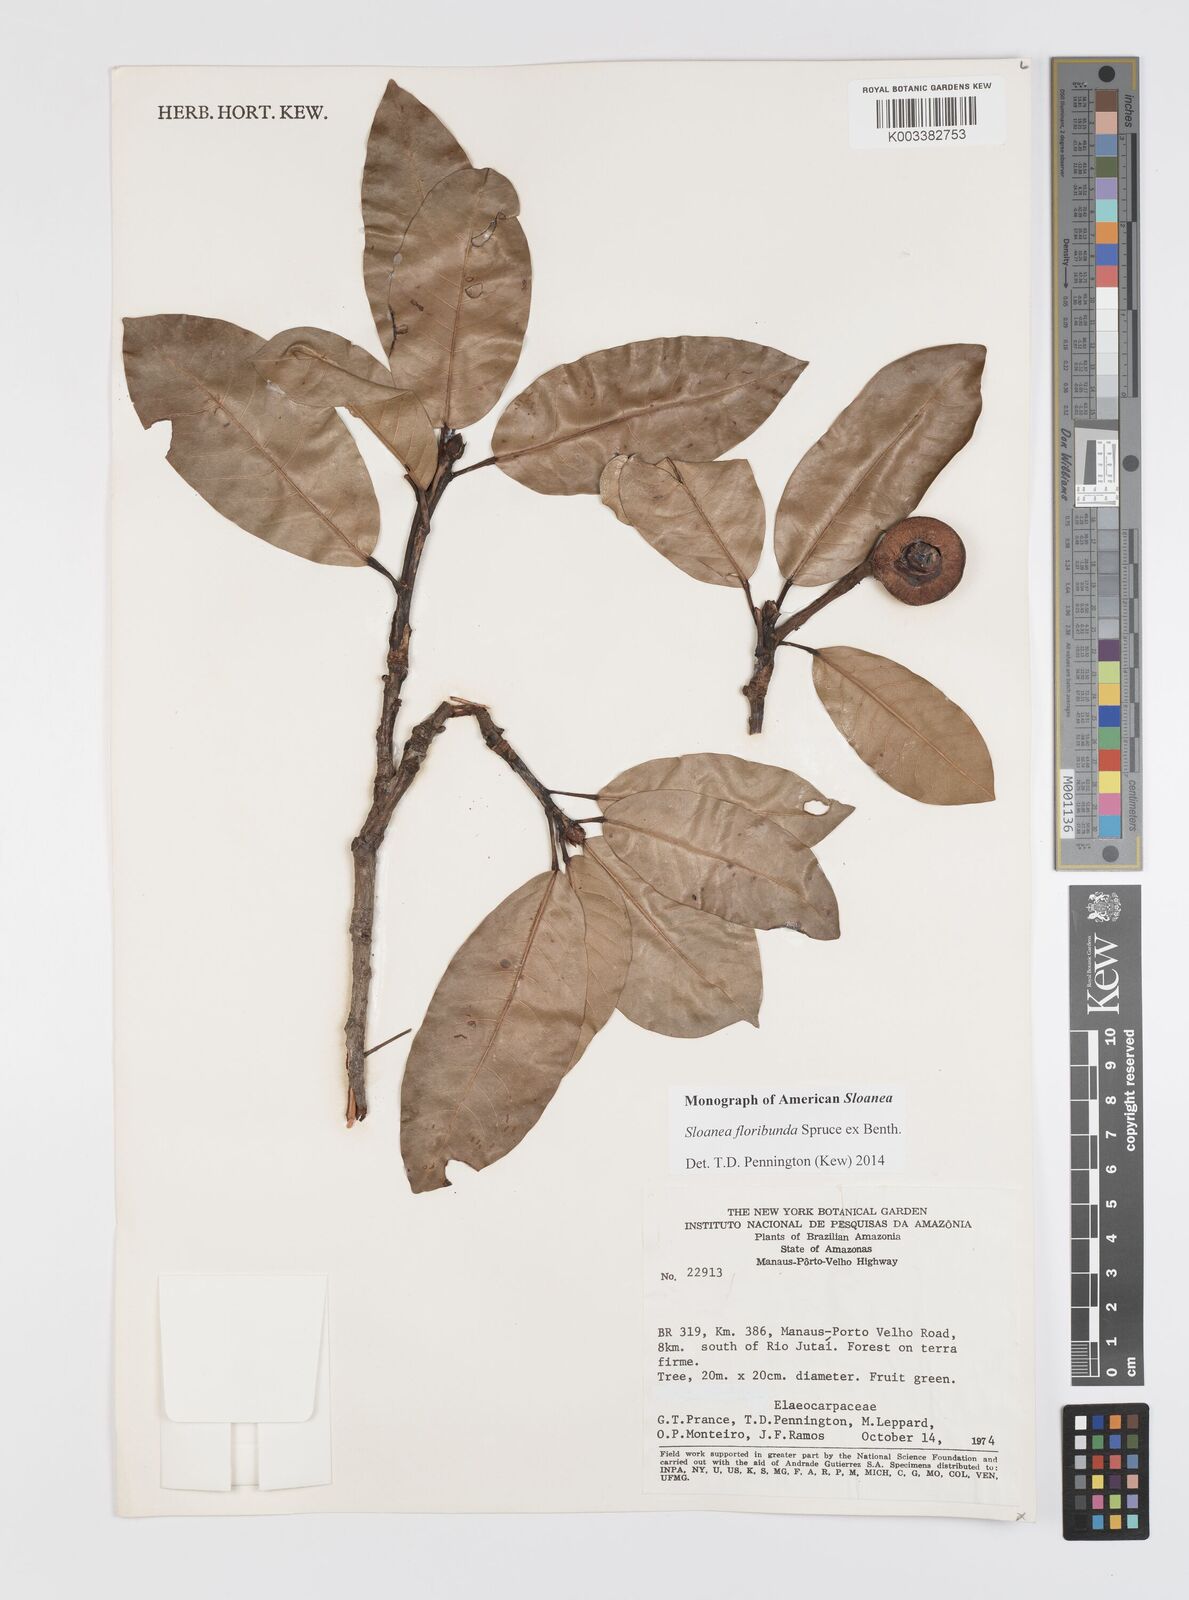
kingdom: Plantae
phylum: Tracheophyta
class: Magnoliopsida
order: Oxalidales
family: Elaeocarpaceae
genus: Sloanea
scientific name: Sloanea floribunda
